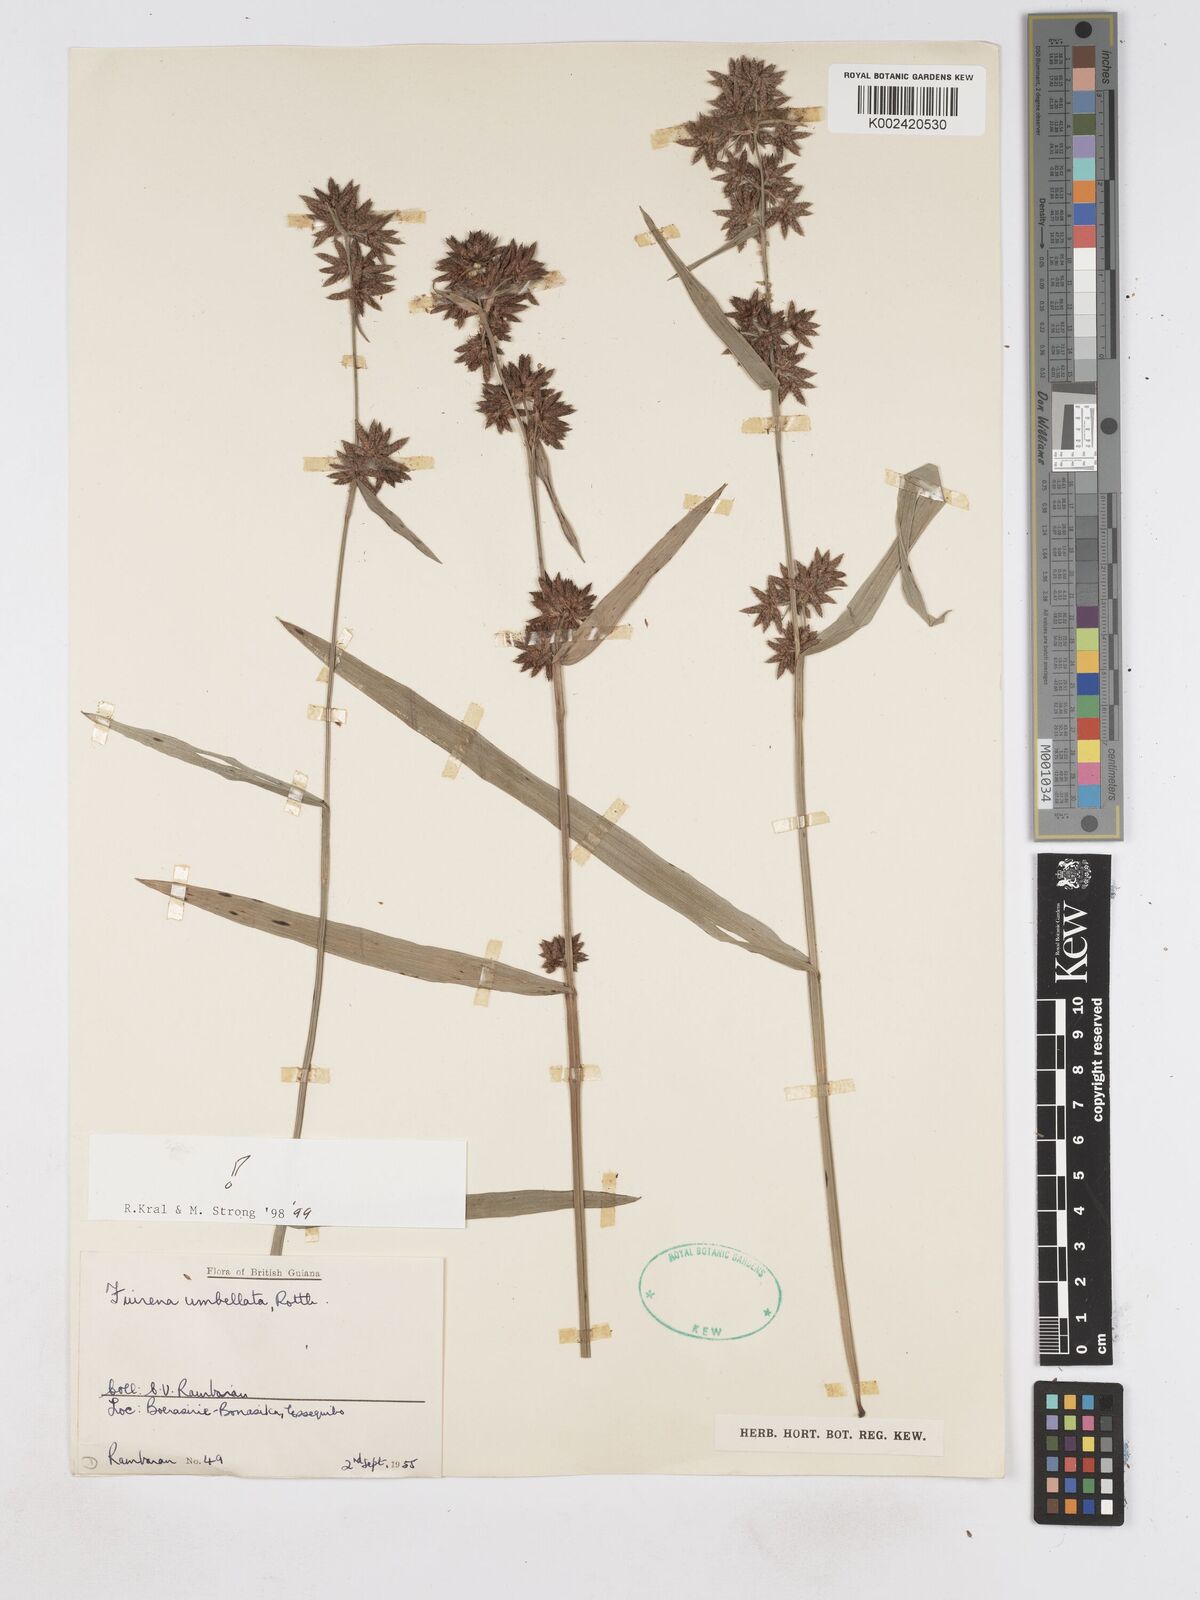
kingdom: Plantae
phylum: Tracheophyta
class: Liliopsida
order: Poales
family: Cyperaceae
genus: Fuirena
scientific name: Fuirena umbellata
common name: Yefen
